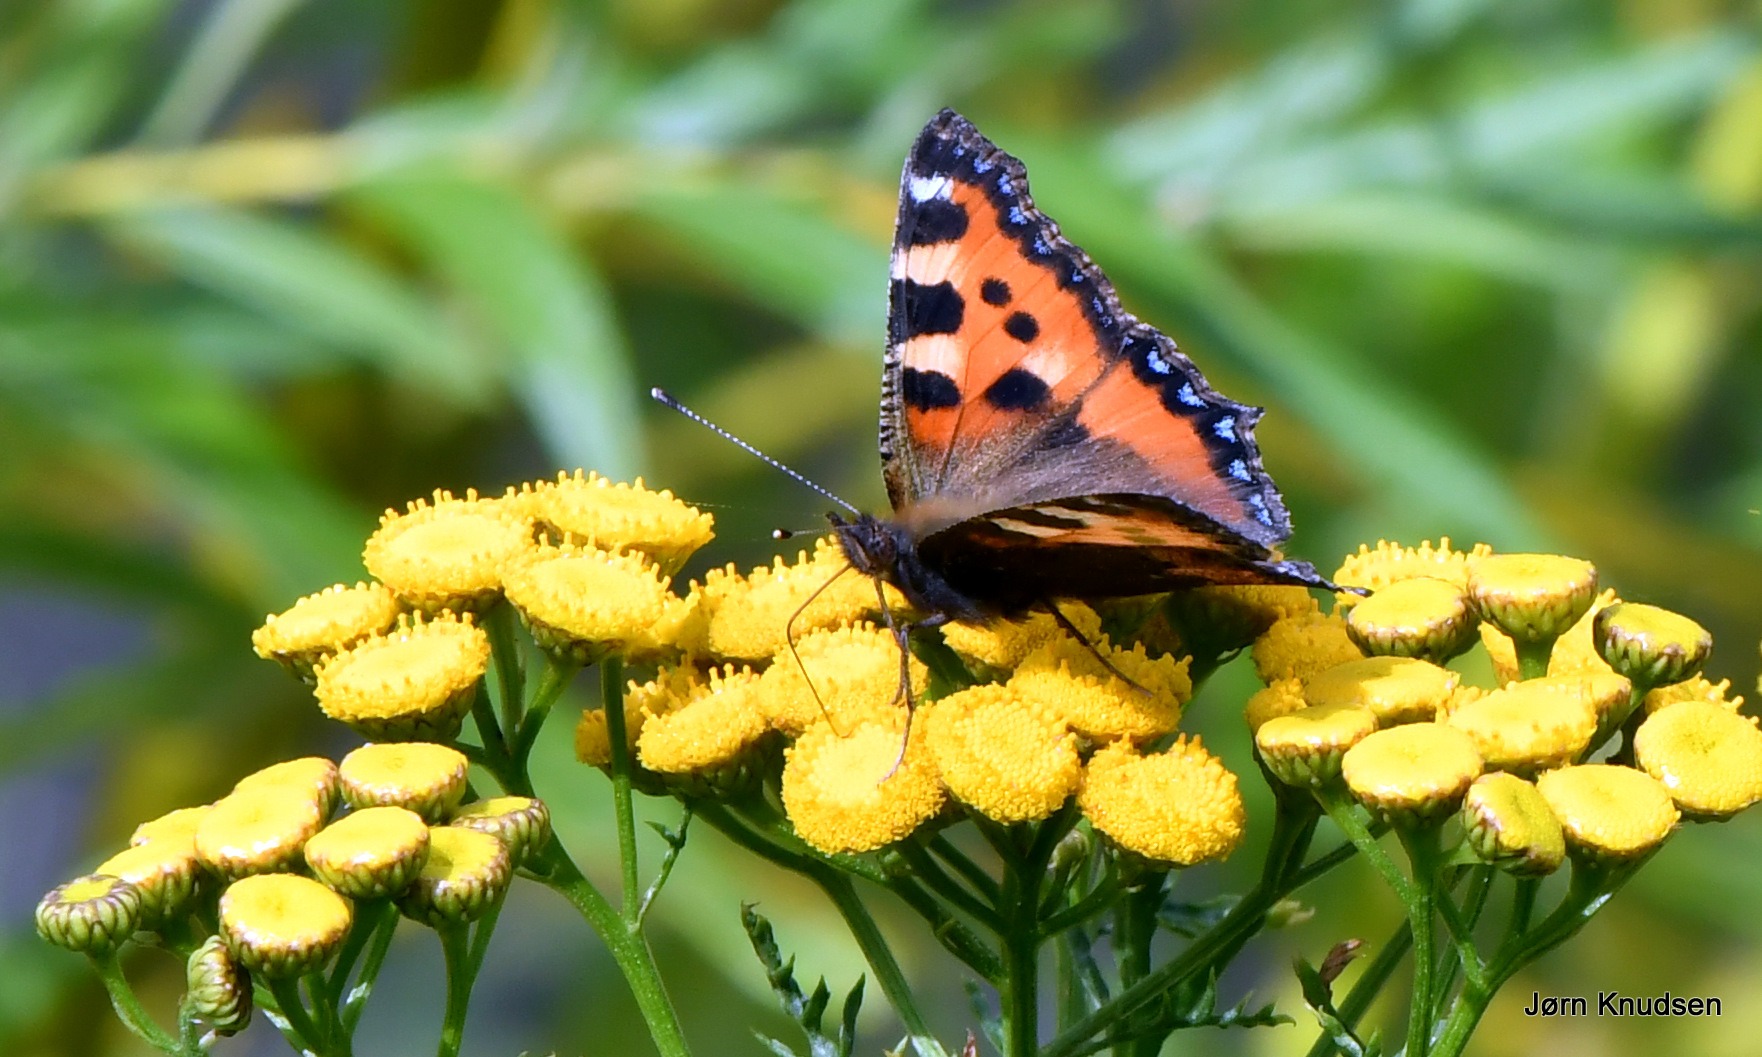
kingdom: Animalia
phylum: Arthropoda
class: Insecta
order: Lepidoptera
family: Nymphalidae
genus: Aglais
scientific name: Aglais urticae
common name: Nældens takvinge
